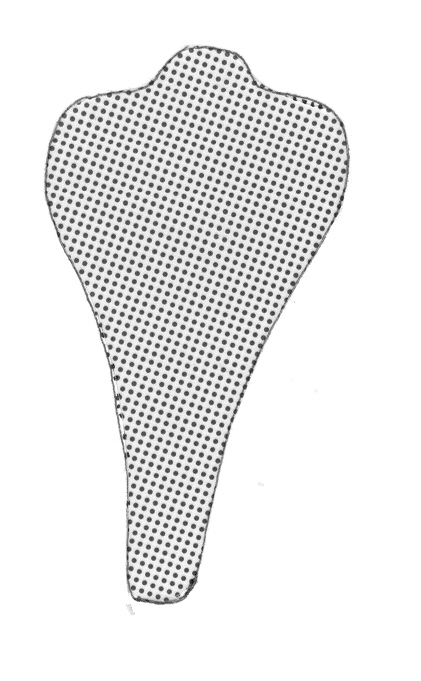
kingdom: Animalia
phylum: Chordata
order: Perciformes
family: Serranidae
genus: Odontanthias
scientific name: Odontanthias unimaculatus
